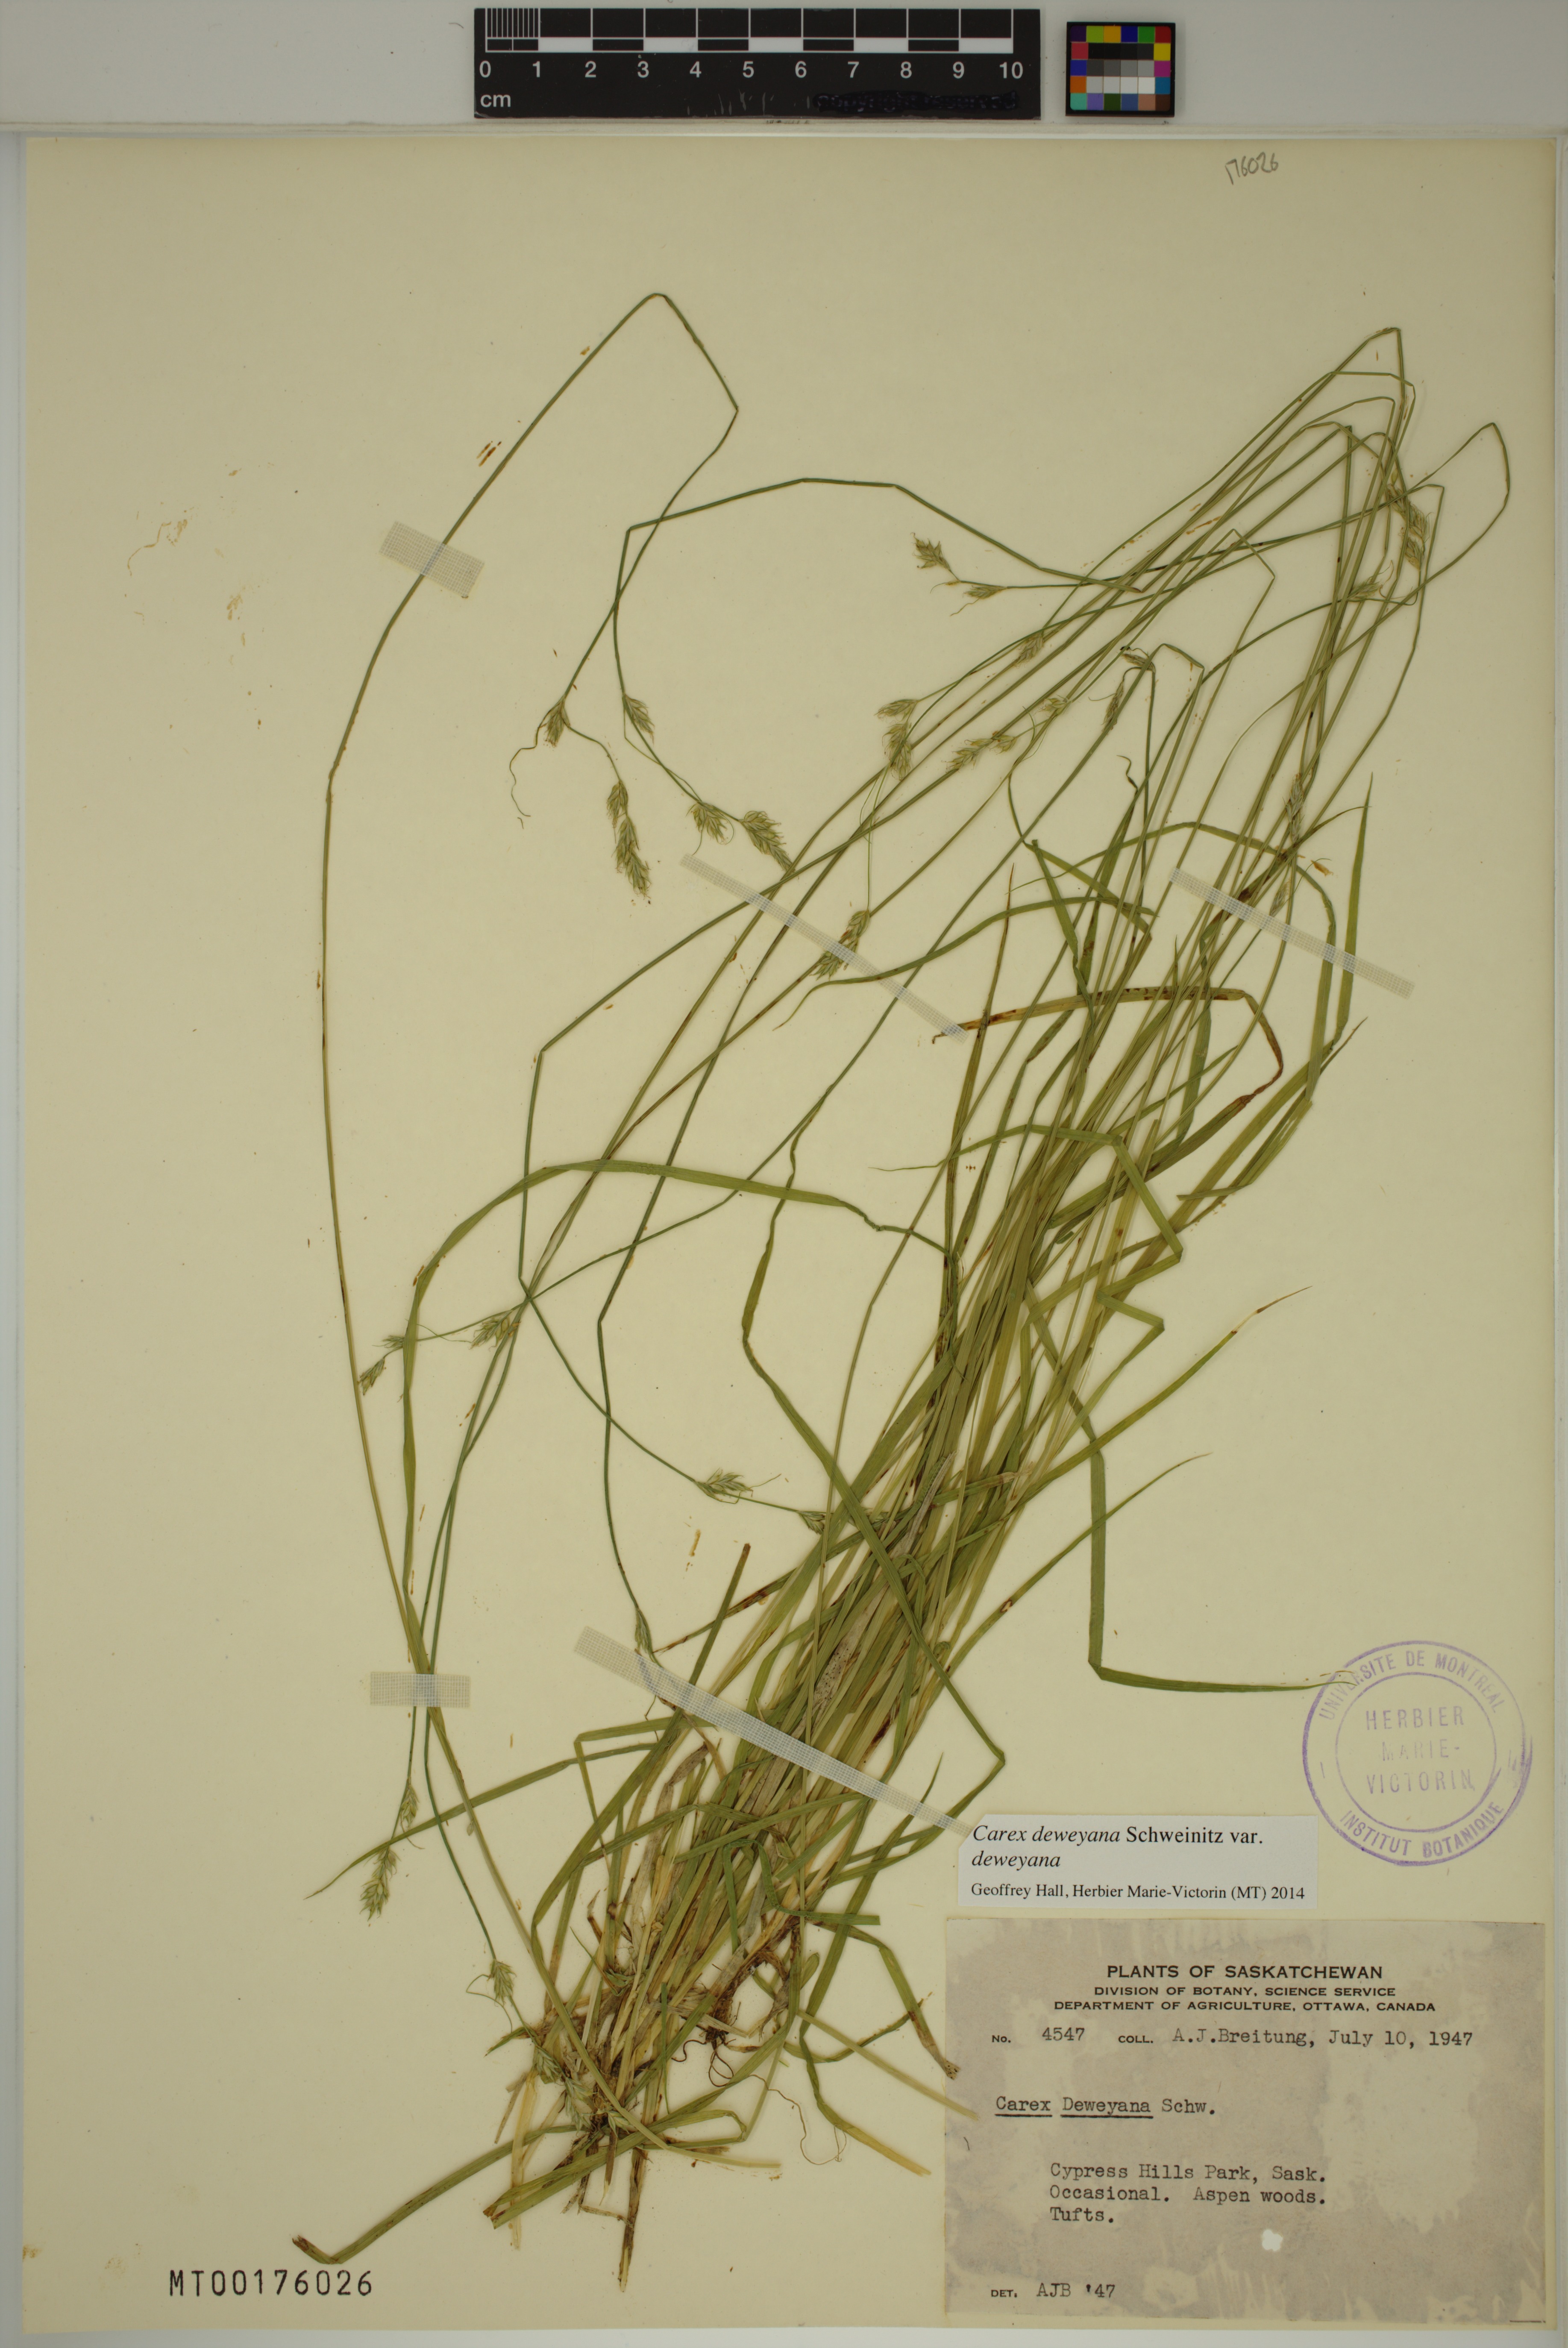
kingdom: Plantae
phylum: Tracheophyta
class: Liliopsida
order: Poales
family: Cyperaceae
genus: Carex
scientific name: Carex deweyana
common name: Dewey's sedge
